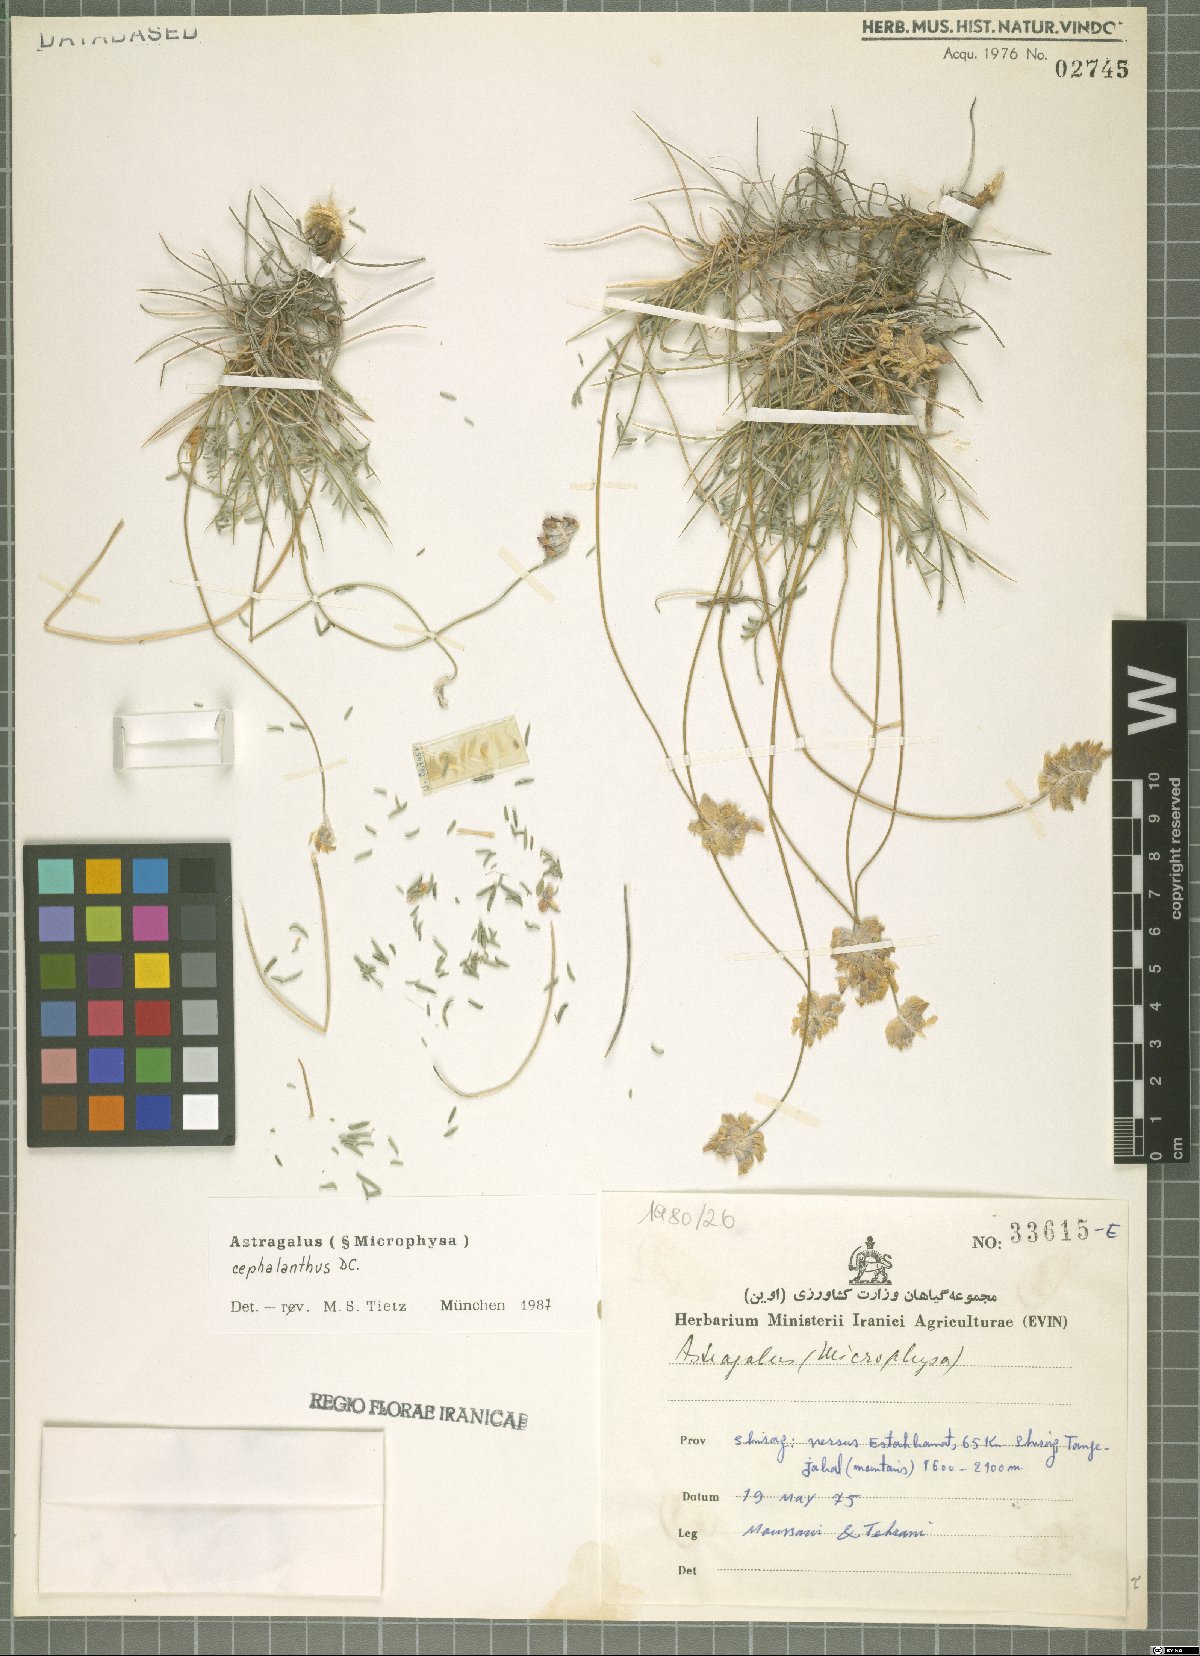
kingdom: Plantae
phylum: Tracheophyta
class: Magnoliopsida
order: Fabales
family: Fabaceae
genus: Astragalus
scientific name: Astragalus cephalanthus
